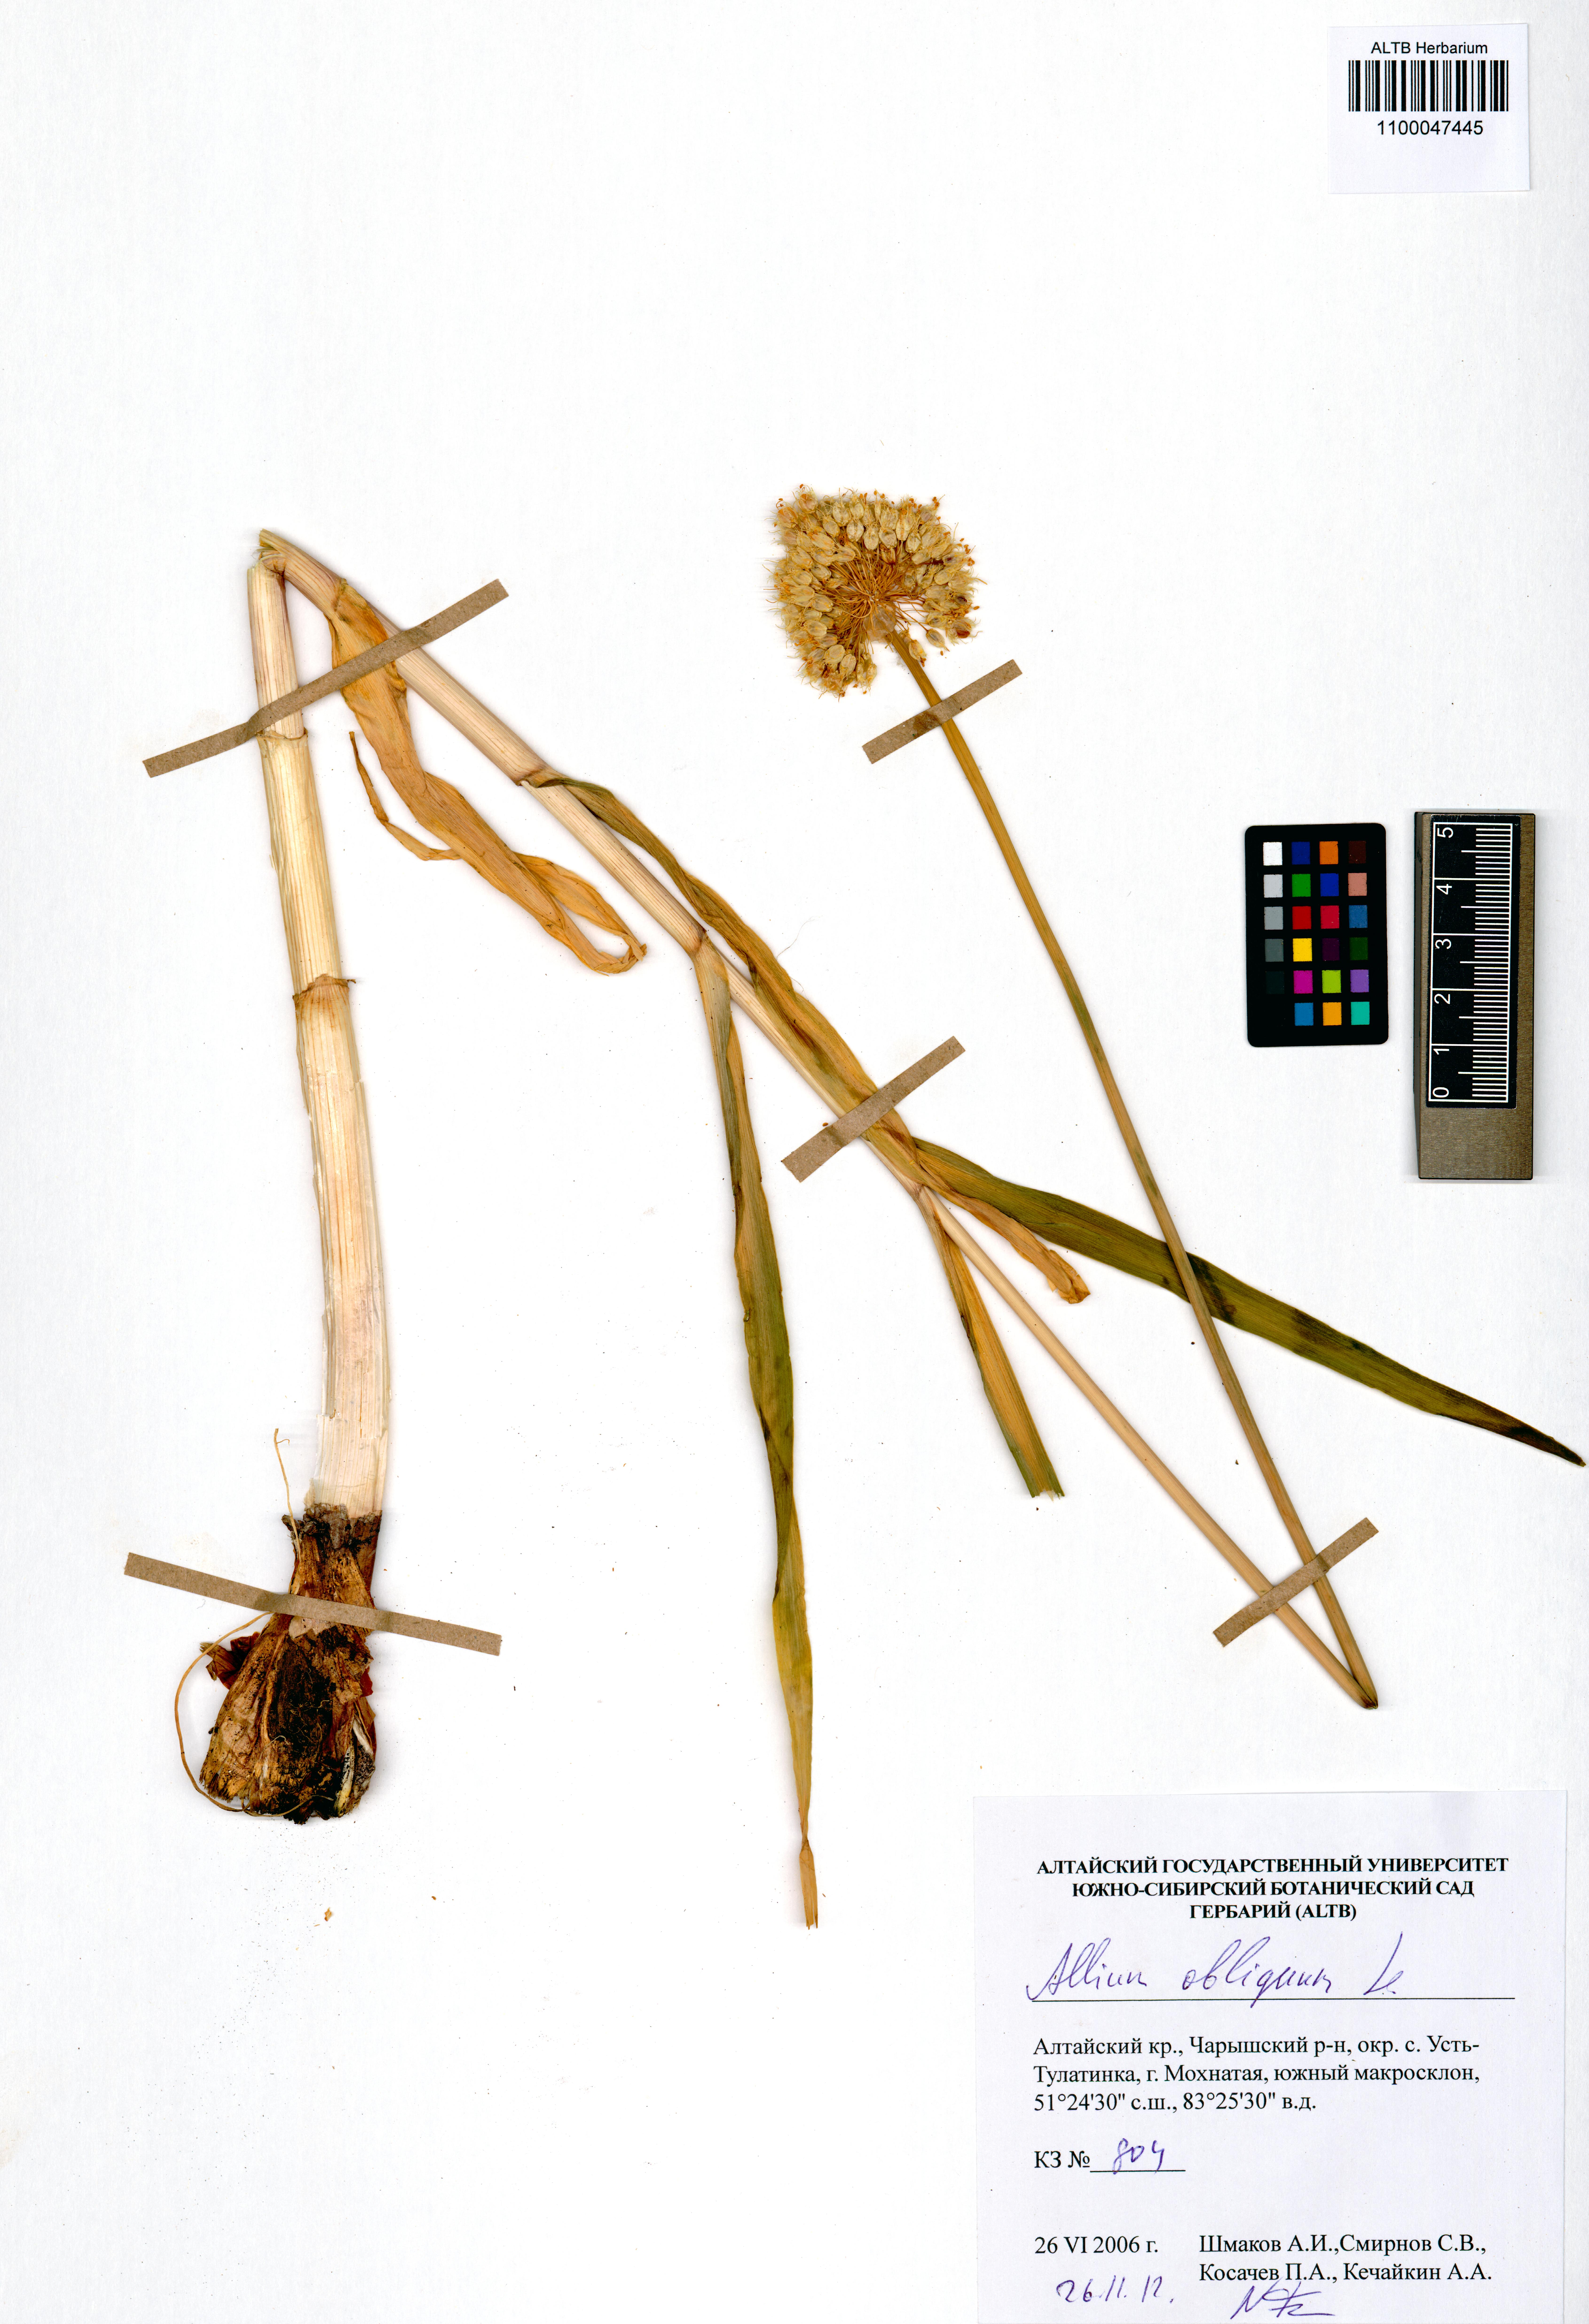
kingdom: Plantae
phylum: Tracheophyta
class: Liliopsida
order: Asparagales
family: Amaryllidaceae
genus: Allium
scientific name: Allium obliquum
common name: Oblique onion
